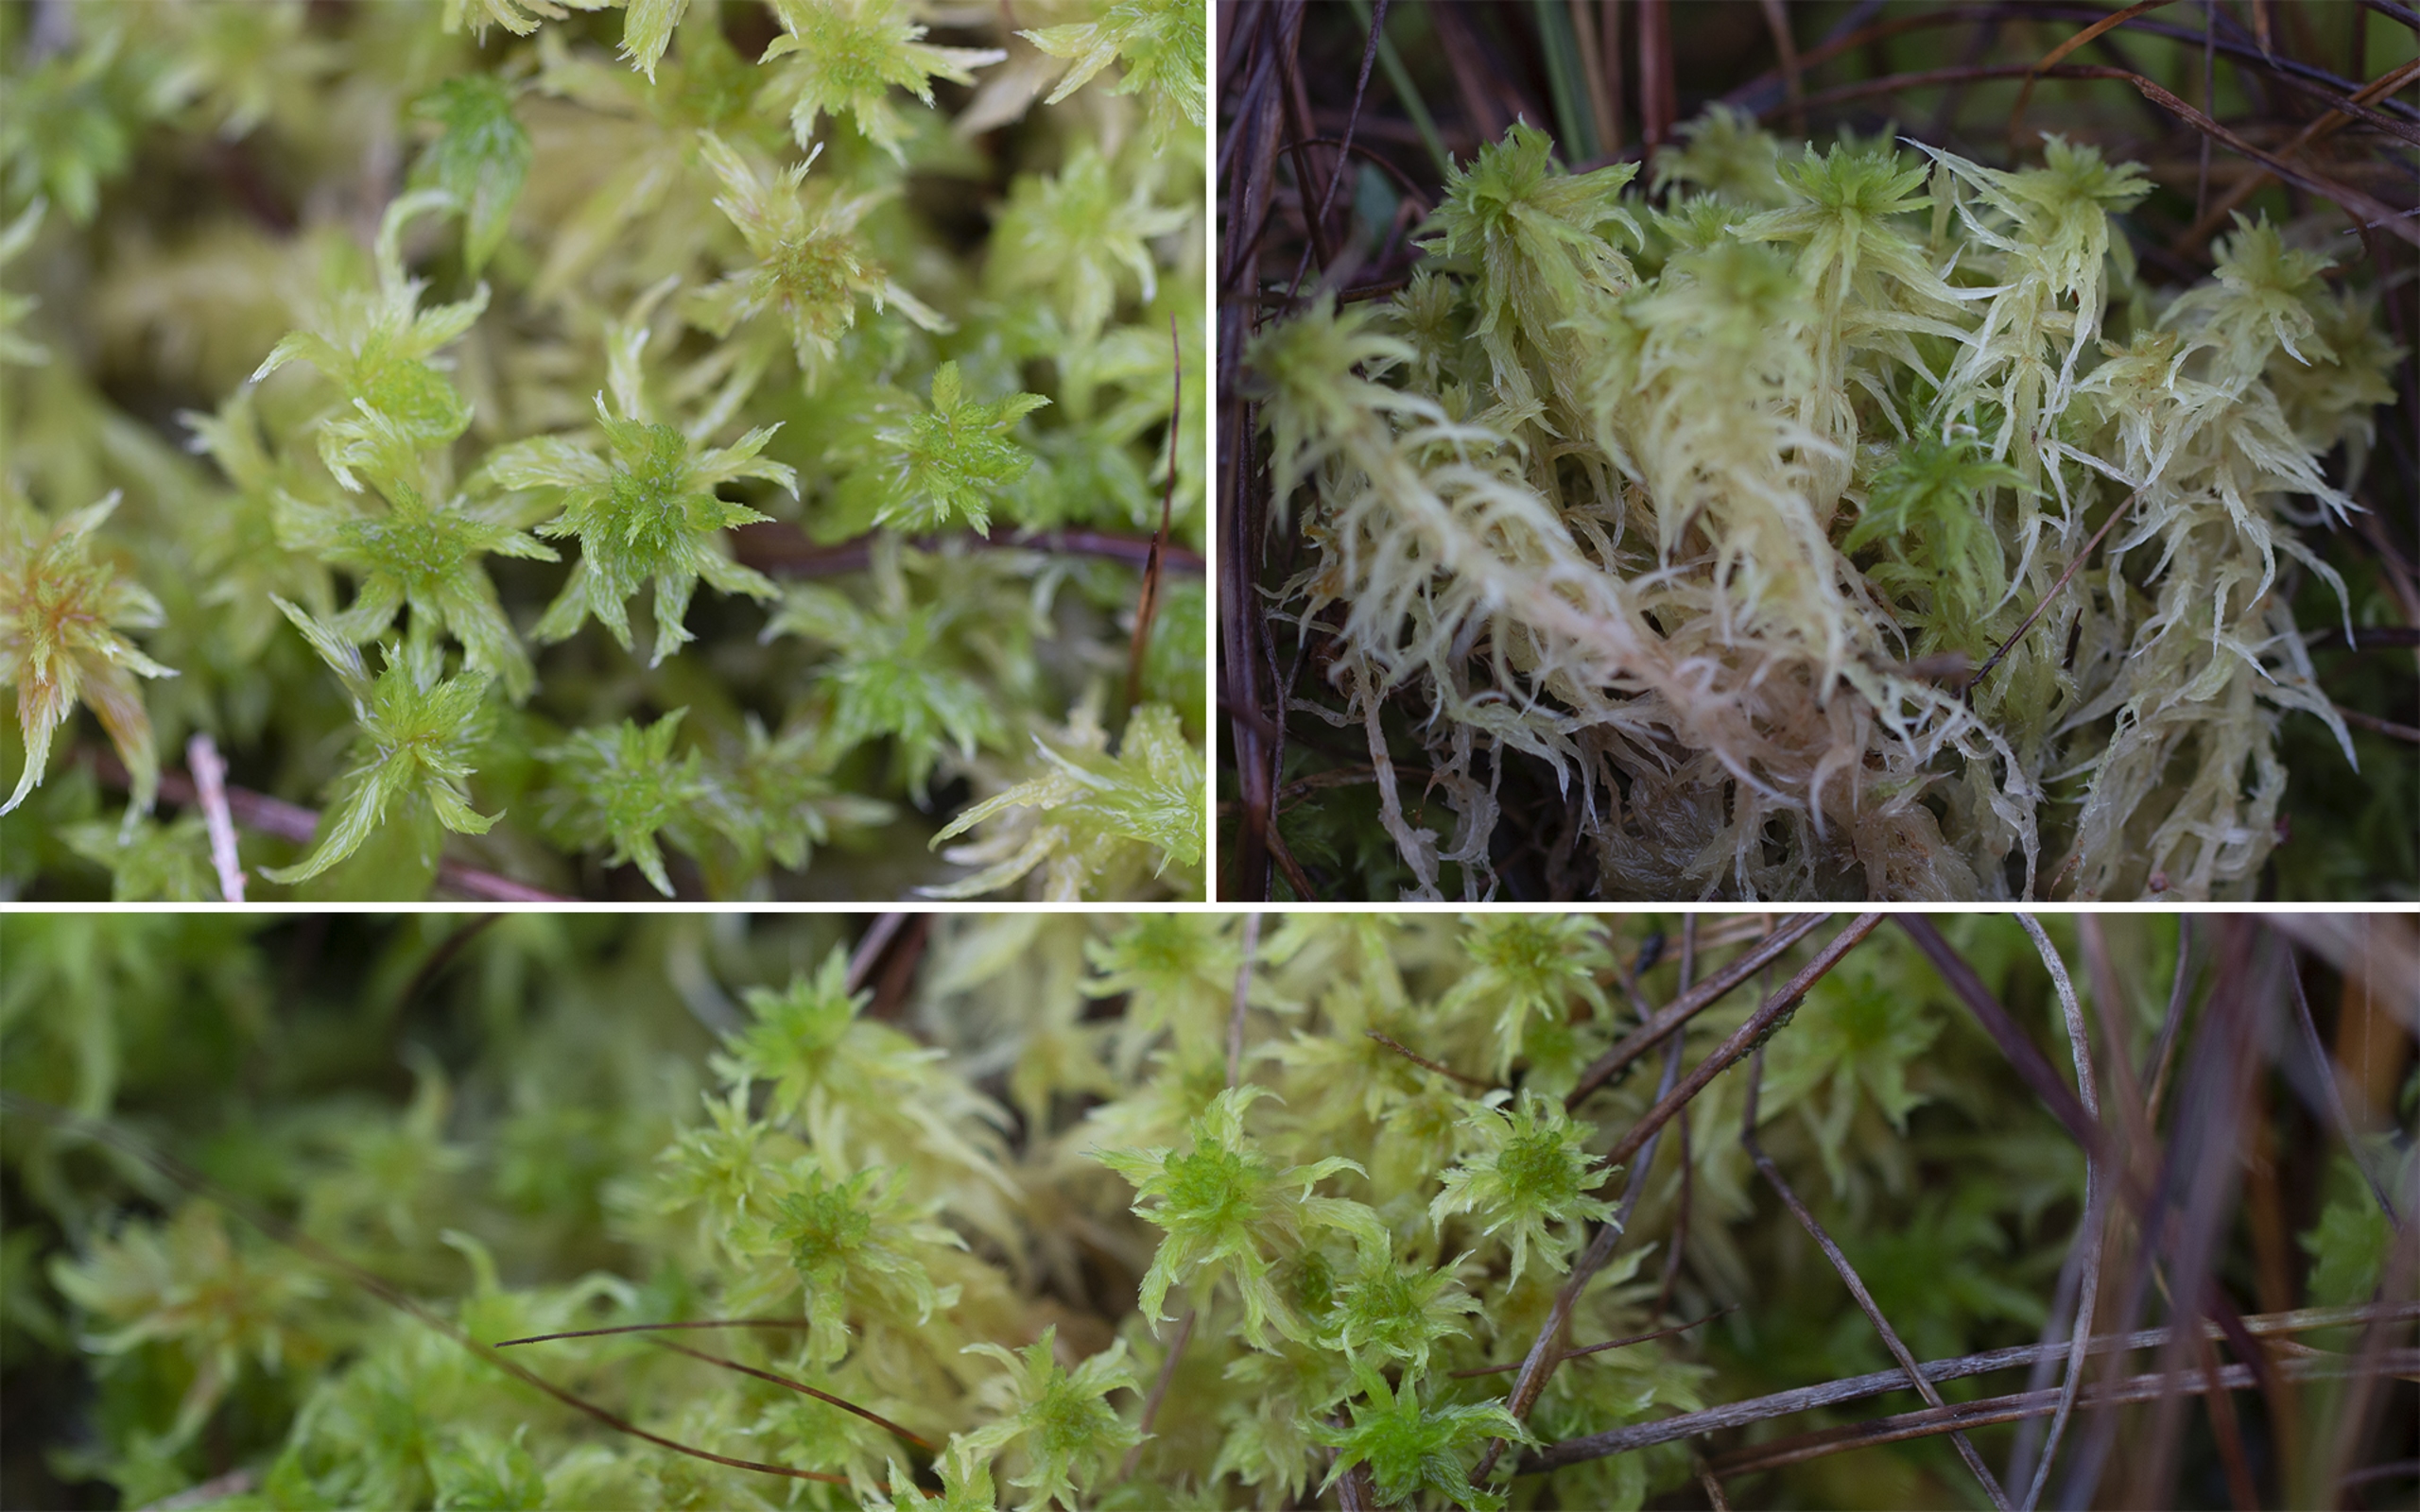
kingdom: Plantae
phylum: Bryophyta
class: Sphagnopsida
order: Sphagnales
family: Sphagnaceae
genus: Sphagnum
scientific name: Sphagnum cuspidatum
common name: Pjusket tørvemos
